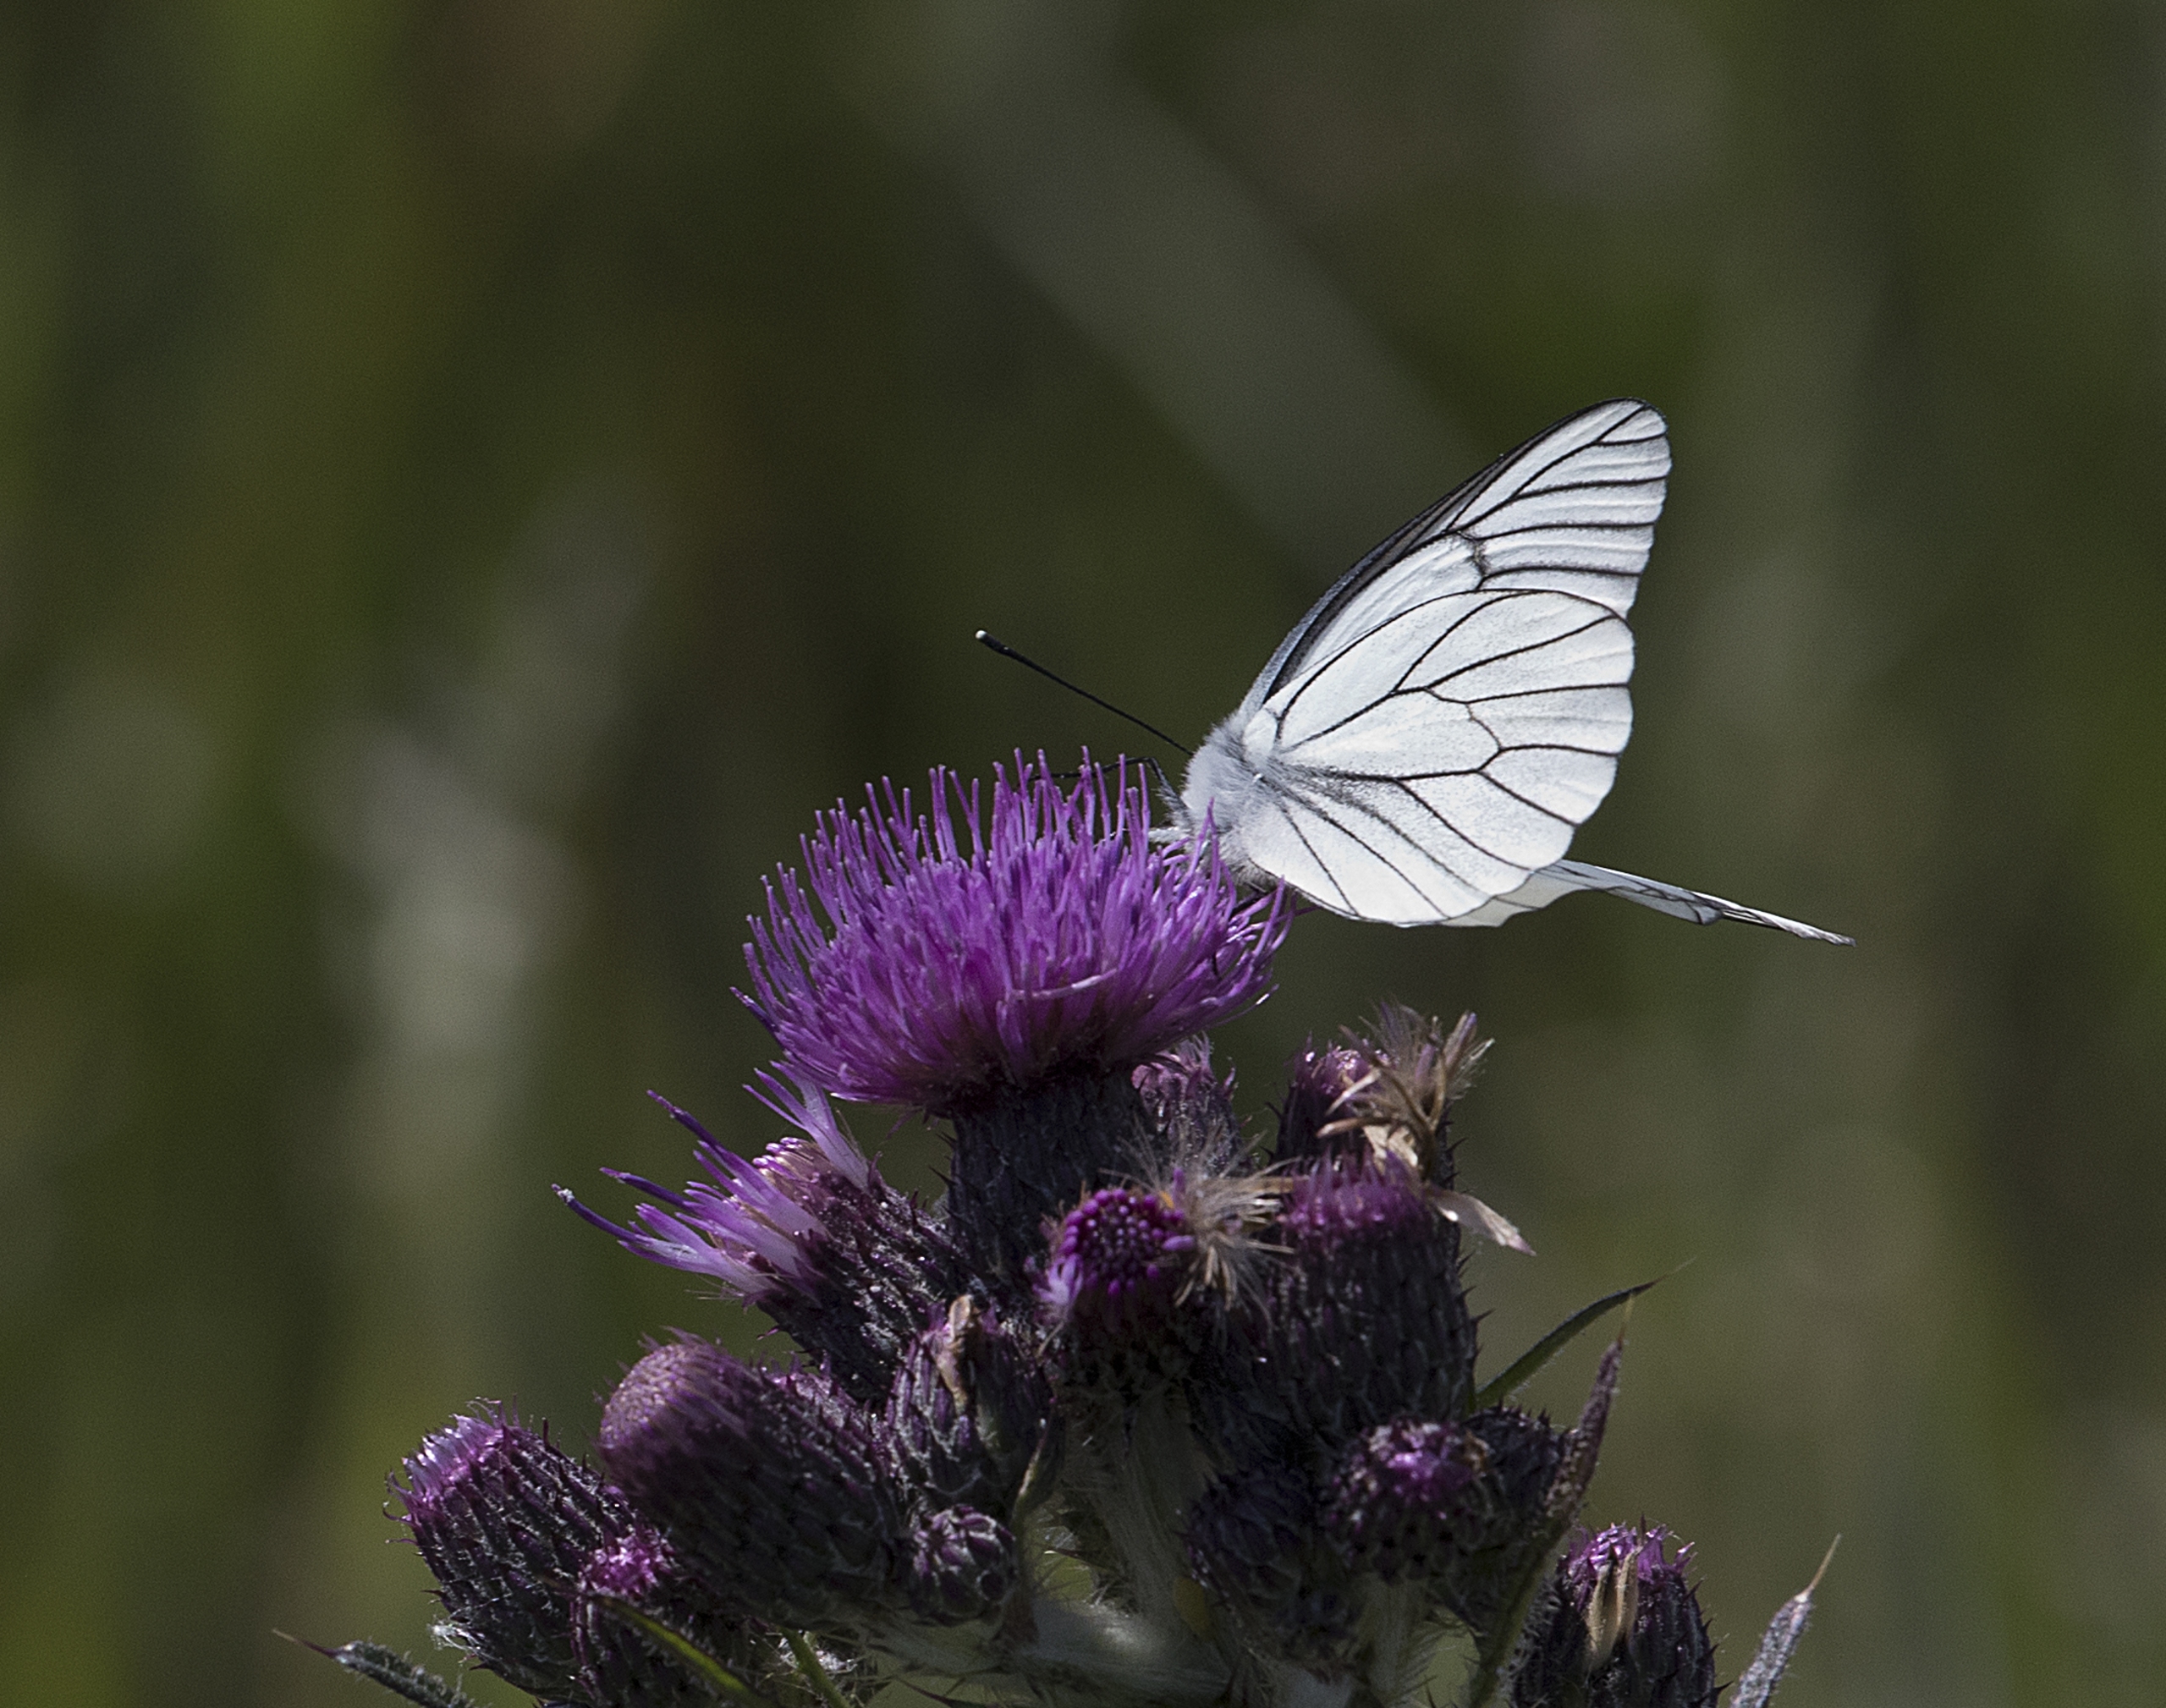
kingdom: Animalia
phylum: Arthropoda
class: Insecta
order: Lepidoptera
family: Pieridae
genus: Aporia
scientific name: Aporia crataegi
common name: Sortåret hvidvinge
